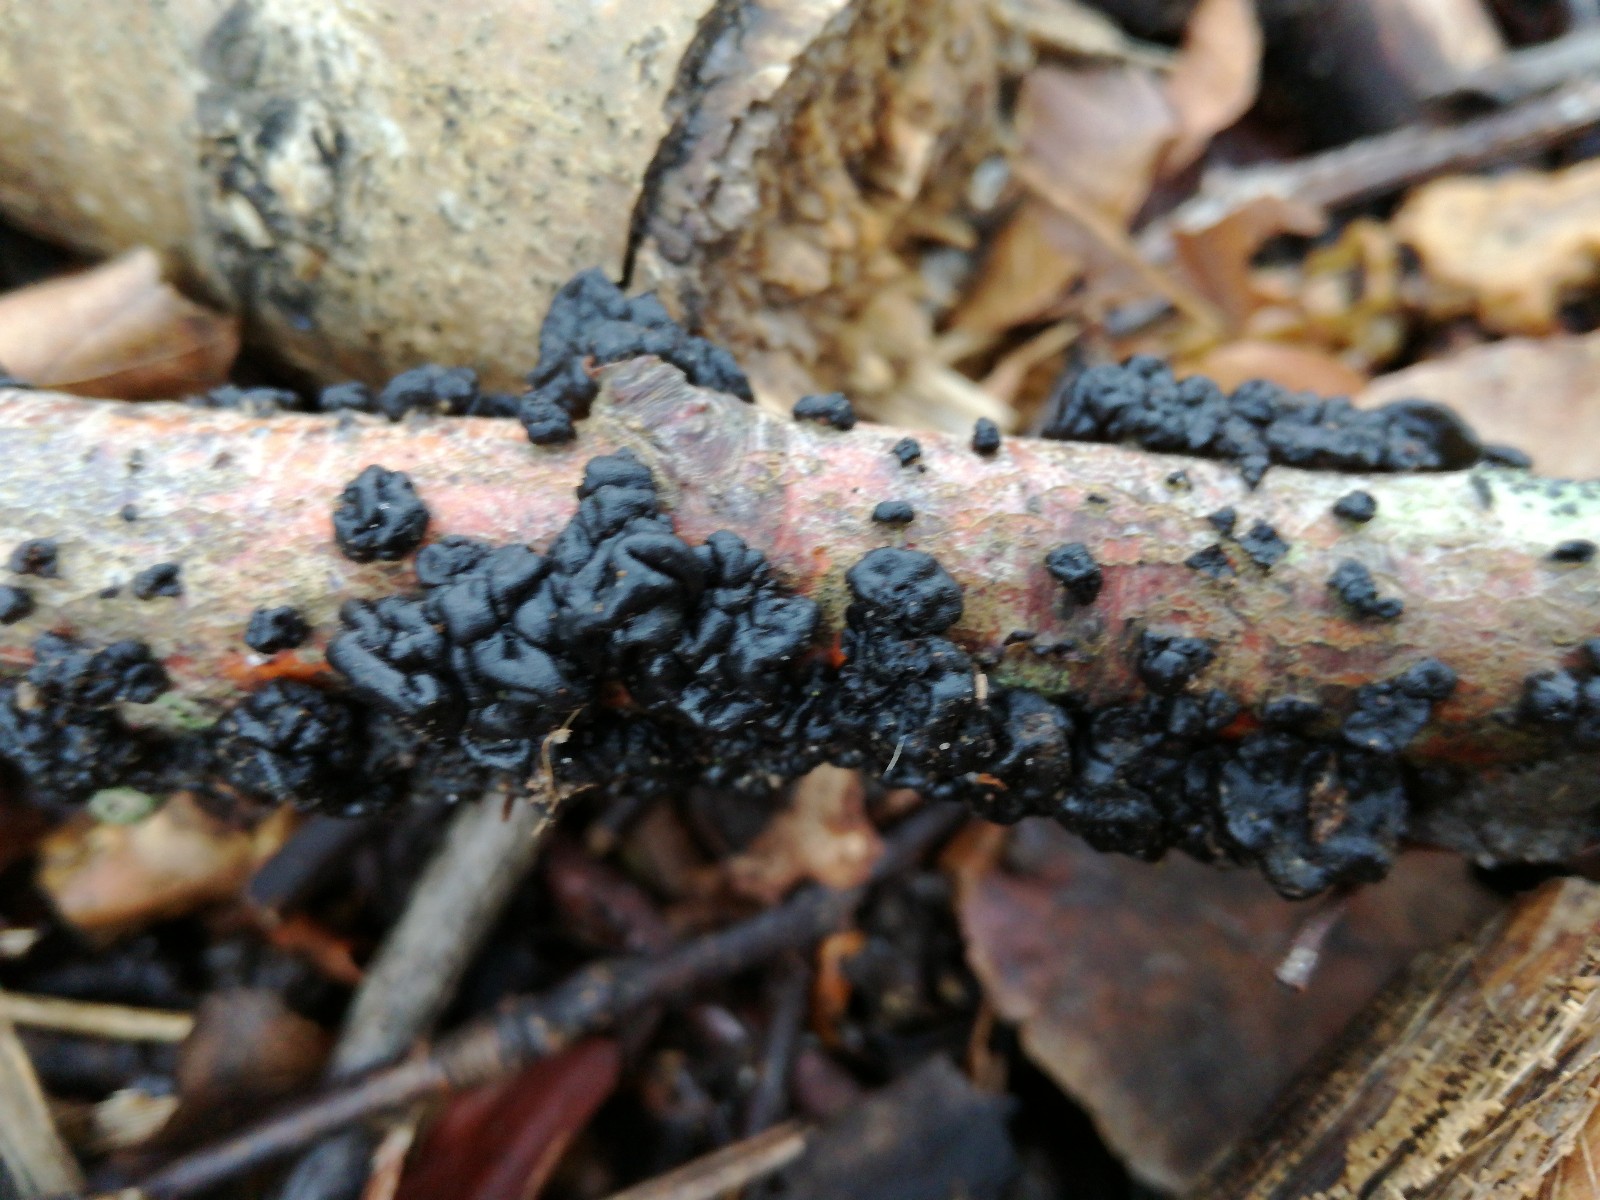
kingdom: Fungi
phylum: Basidiomycota
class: Agaricomycetes
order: Auriculariales
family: Auriculariaceae
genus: Exidia
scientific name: Exidia nigricans
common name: almindelig bævretop
